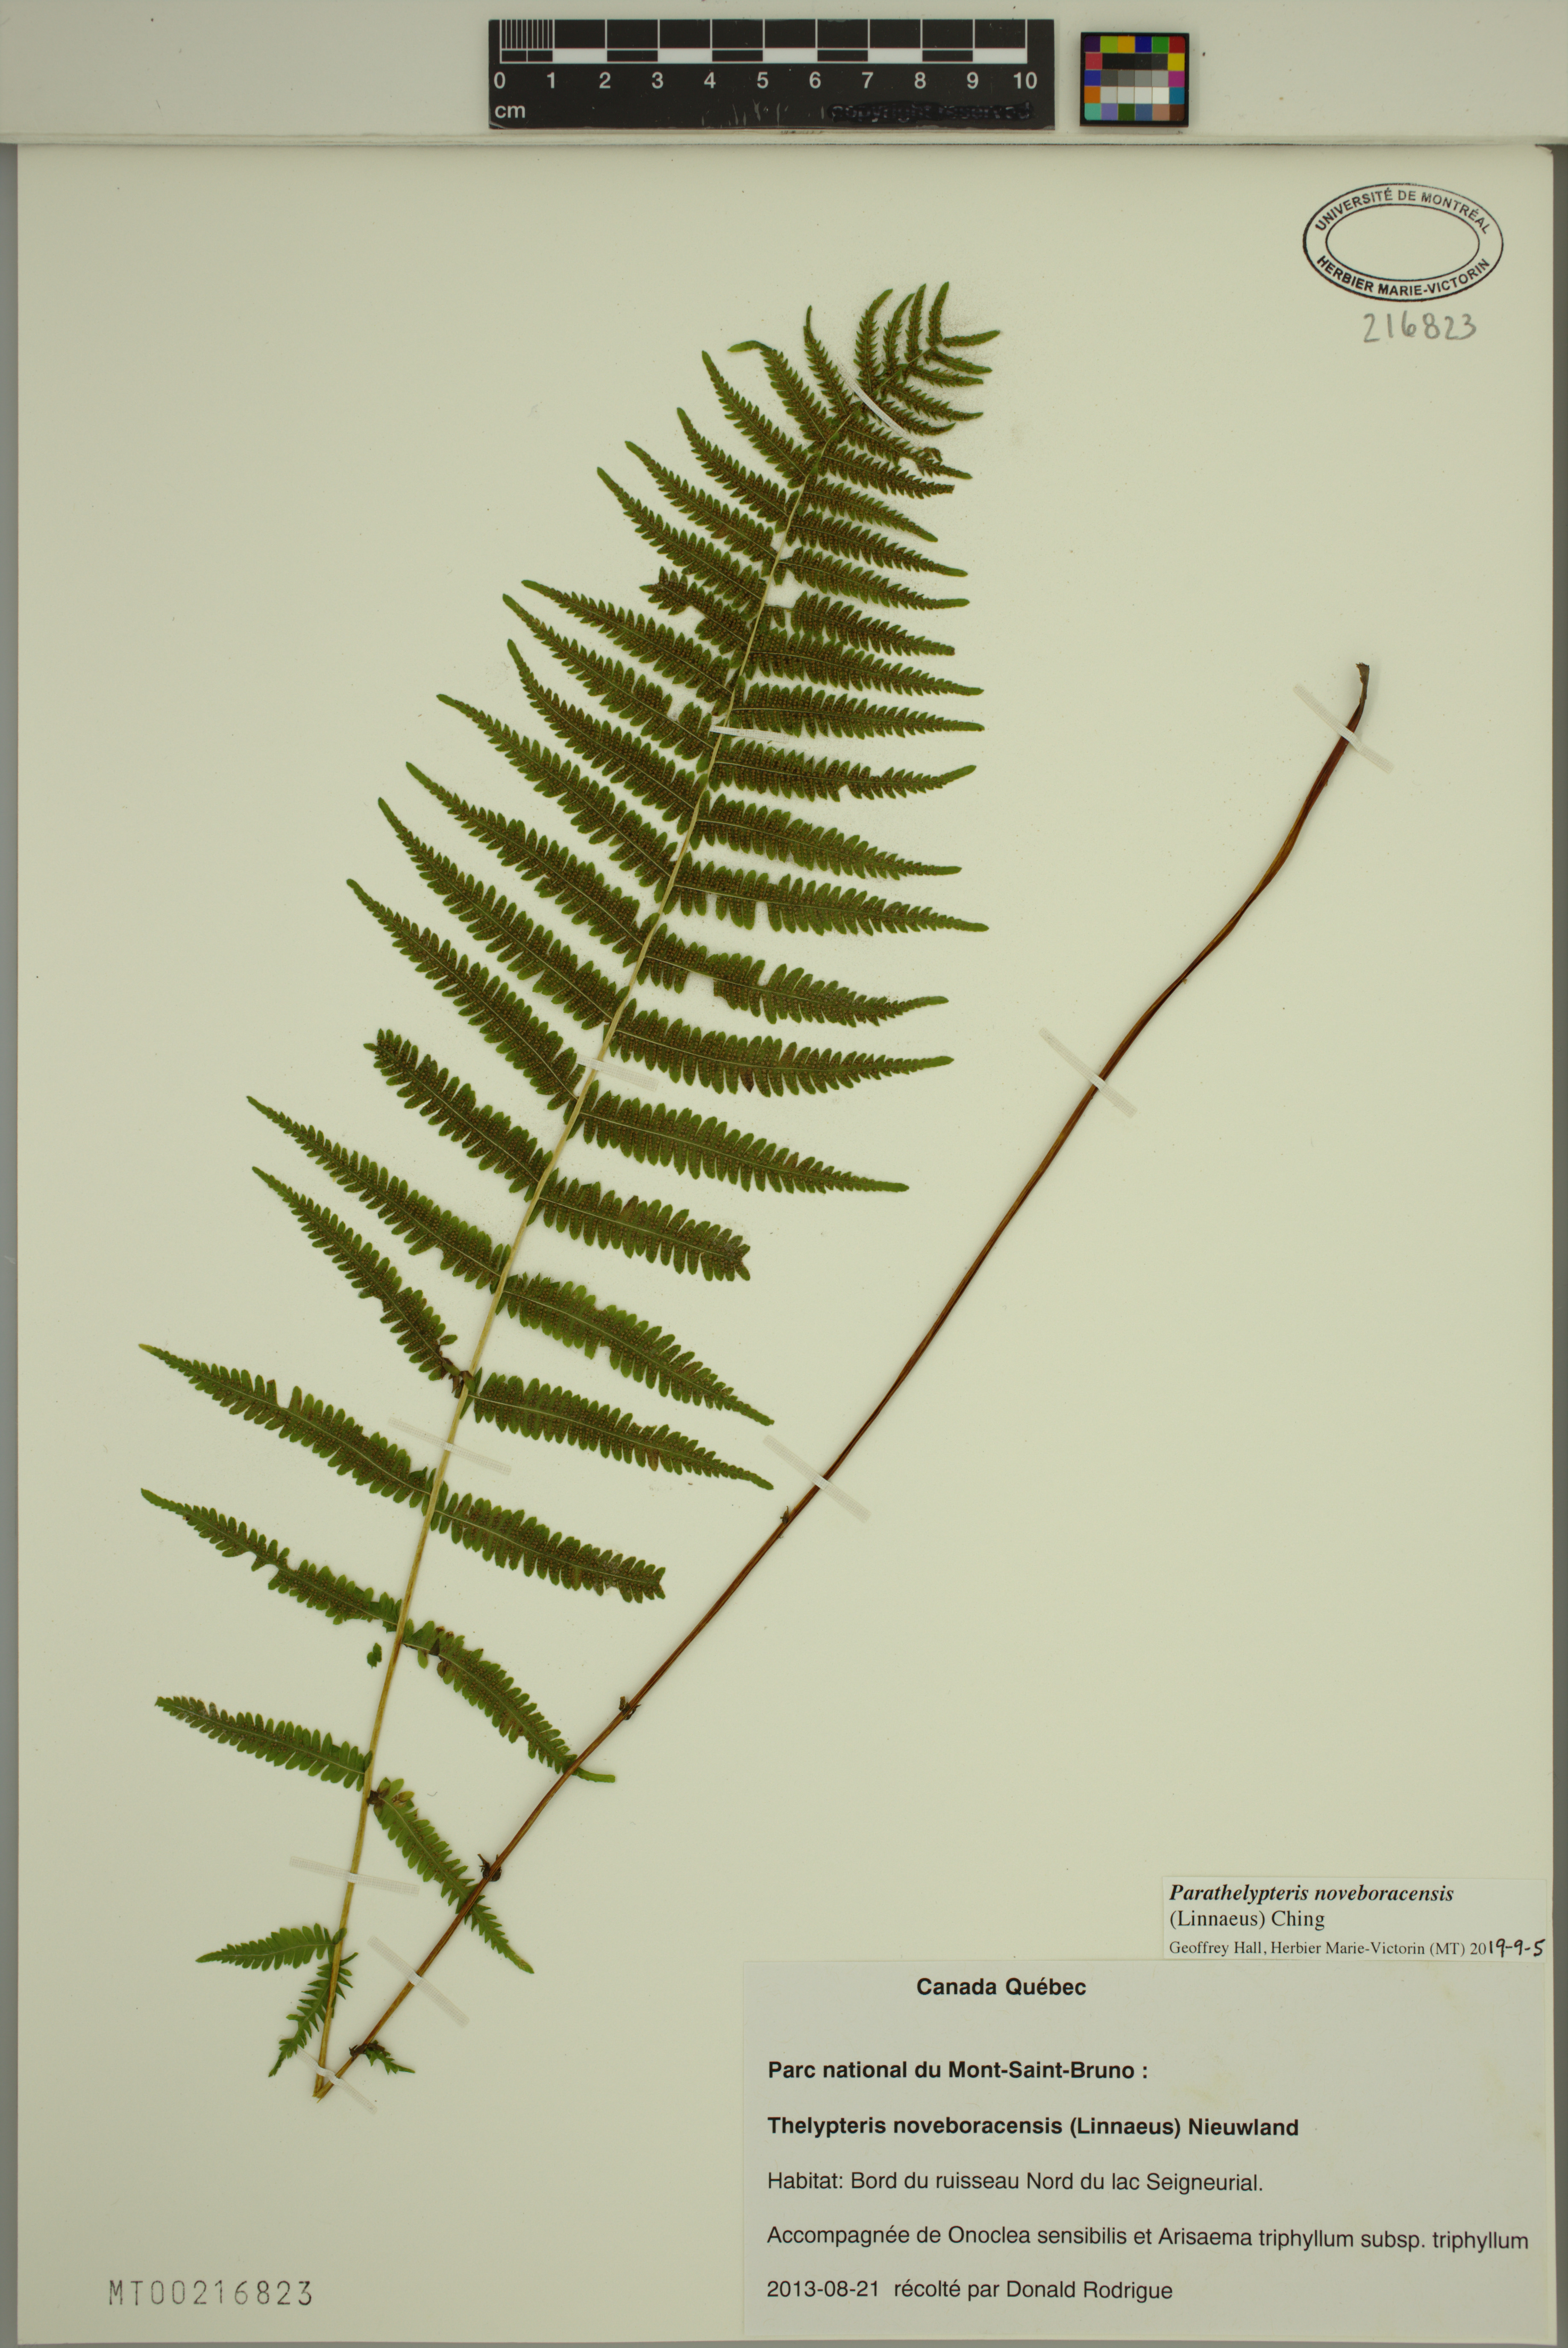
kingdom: Plantae
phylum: Tracheophyta
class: Polypodiopsida
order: Polypodiales
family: Thelypteridaceae
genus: Amauropelta
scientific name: Amauropelta noveboracensis
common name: New york fern
